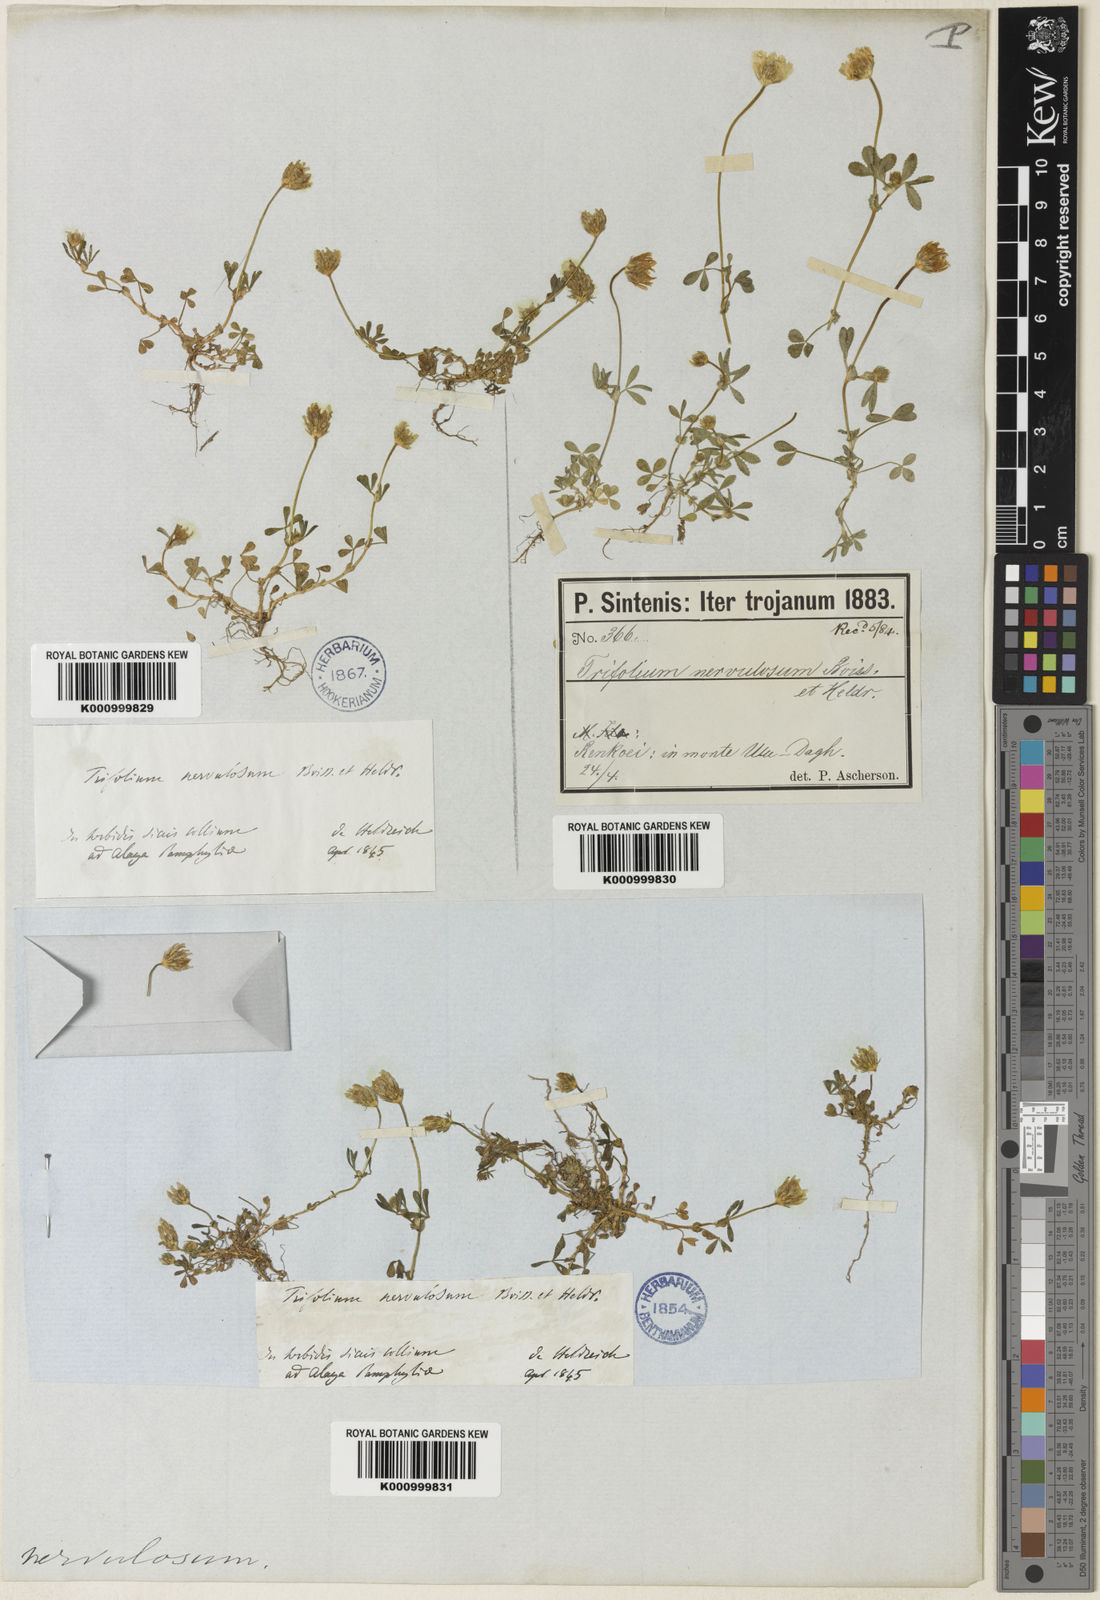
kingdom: Plantae
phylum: Tracheophyta
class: Magnoliopsida
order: Fabales
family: Fabaceae
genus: Trifolium
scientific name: Trifolium glanduliferum
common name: Glandular clover
